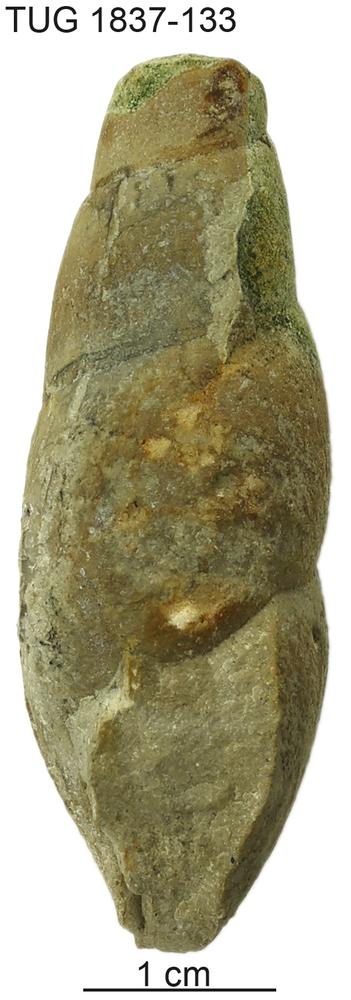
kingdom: Animalia
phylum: Mollusca
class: Gastropoda
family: Subulitidae
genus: Subulites
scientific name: Subulites
